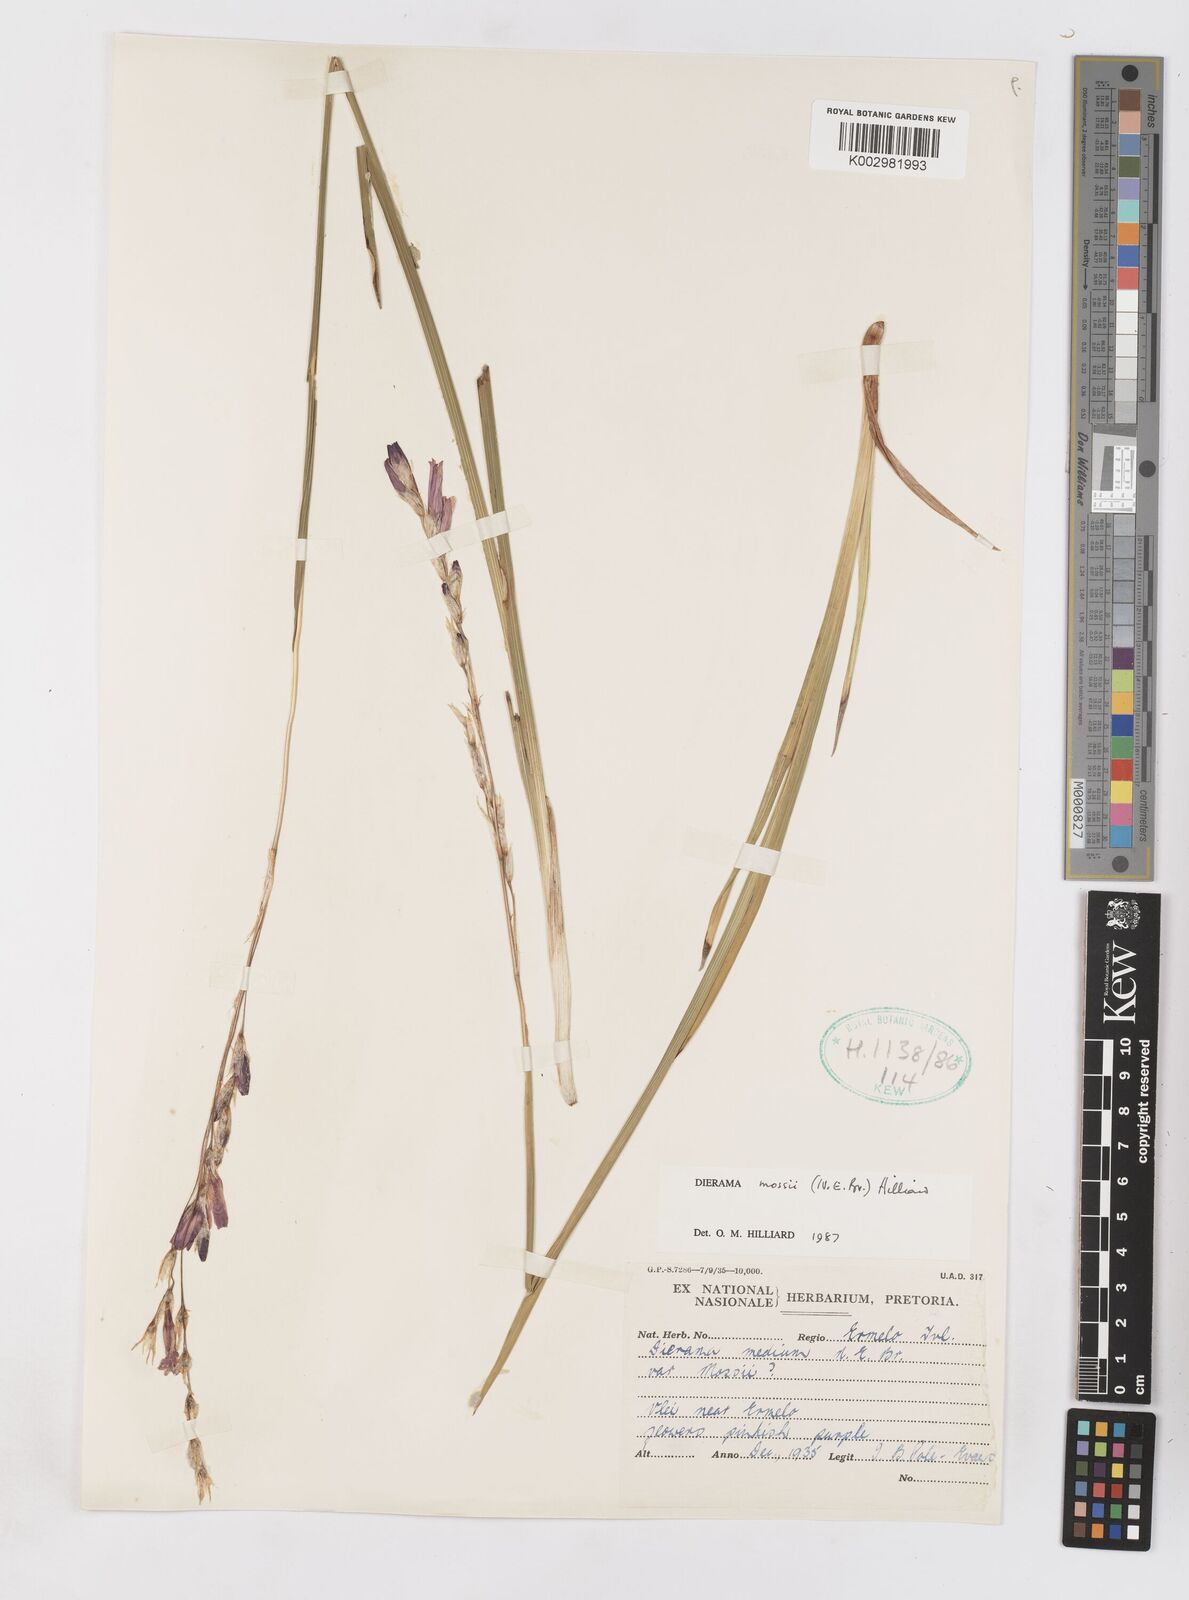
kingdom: Plantae
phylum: Tracheophyta
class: Liliopsida
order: Asparagales
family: Iridaceae
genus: Dierama
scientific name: Dierama mossii
